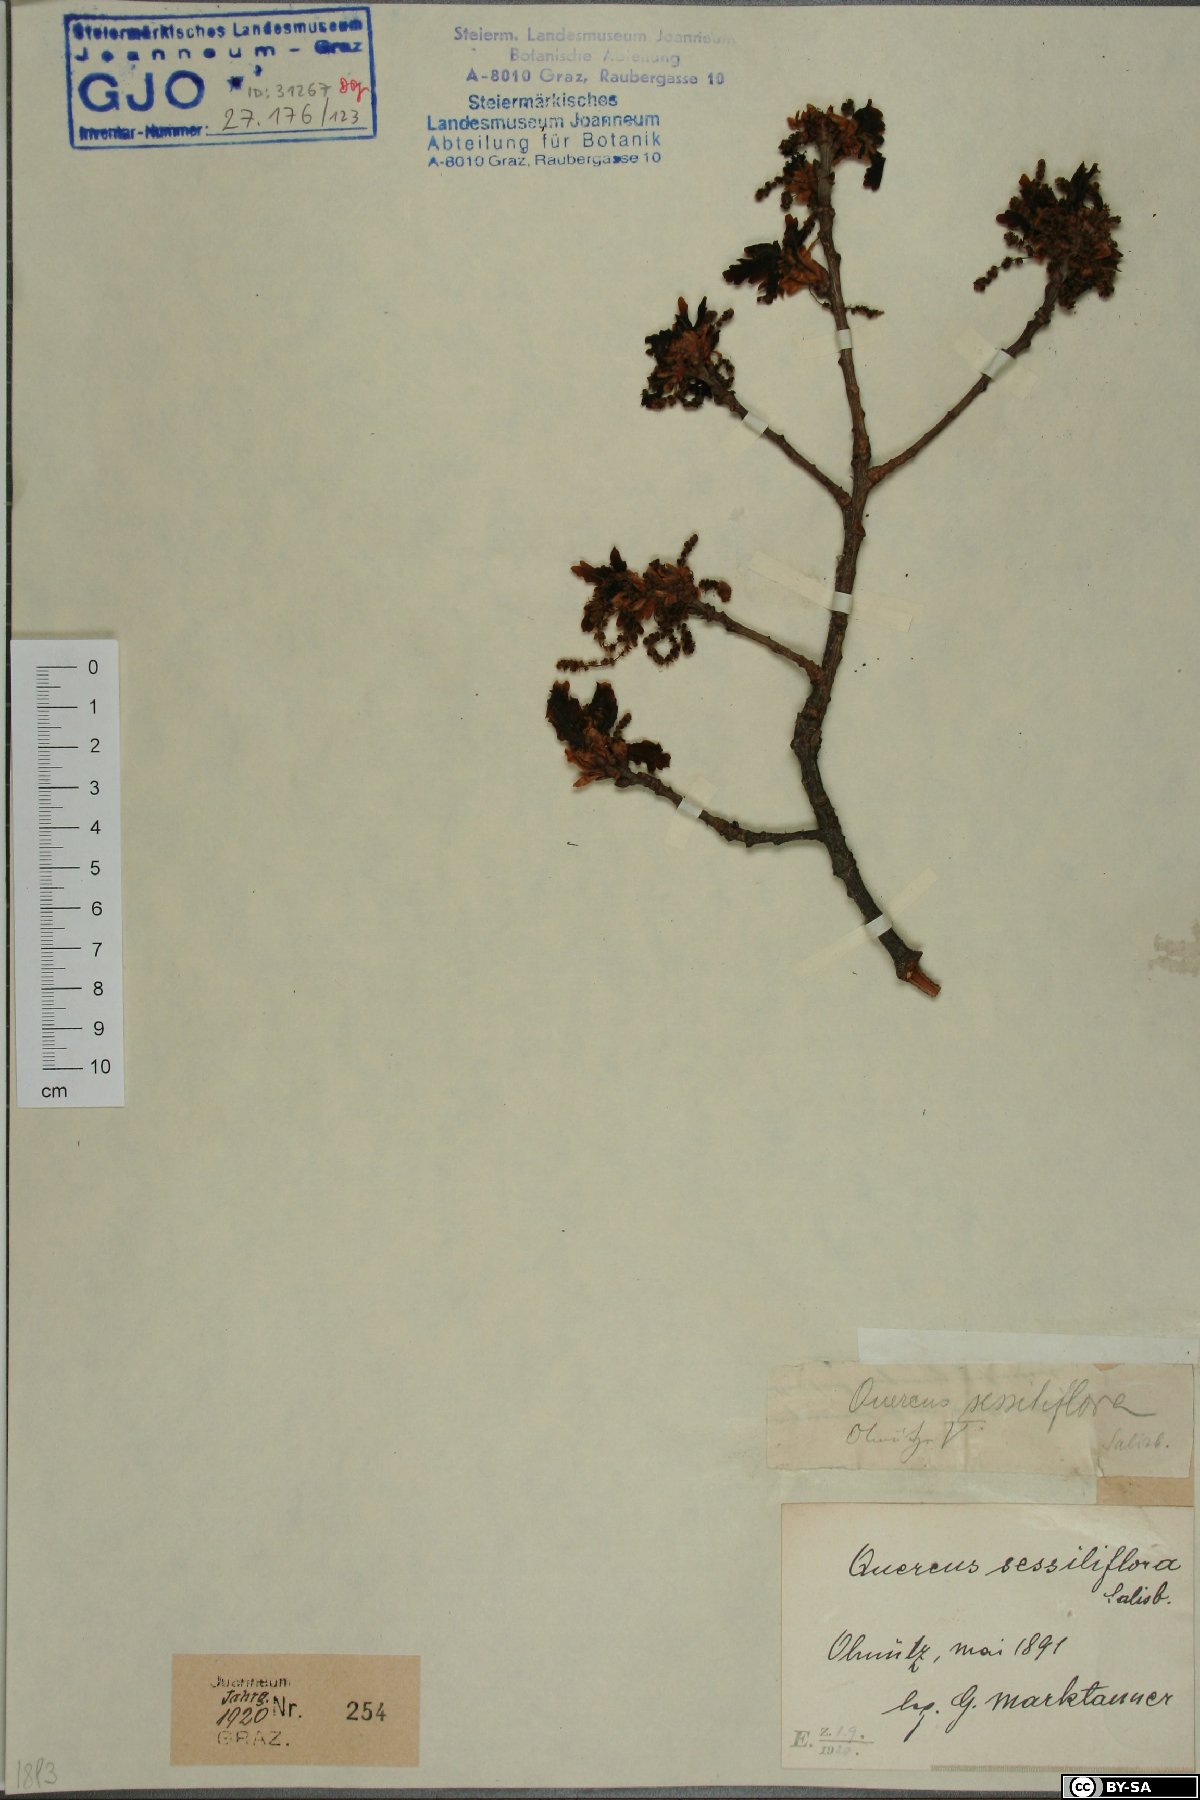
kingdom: Plantae
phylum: Tracheophyta
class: Magnoliopsida
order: Fagales
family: Fagaceae
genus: Quercus
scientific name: Quercus petraea
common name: Sessile oak
